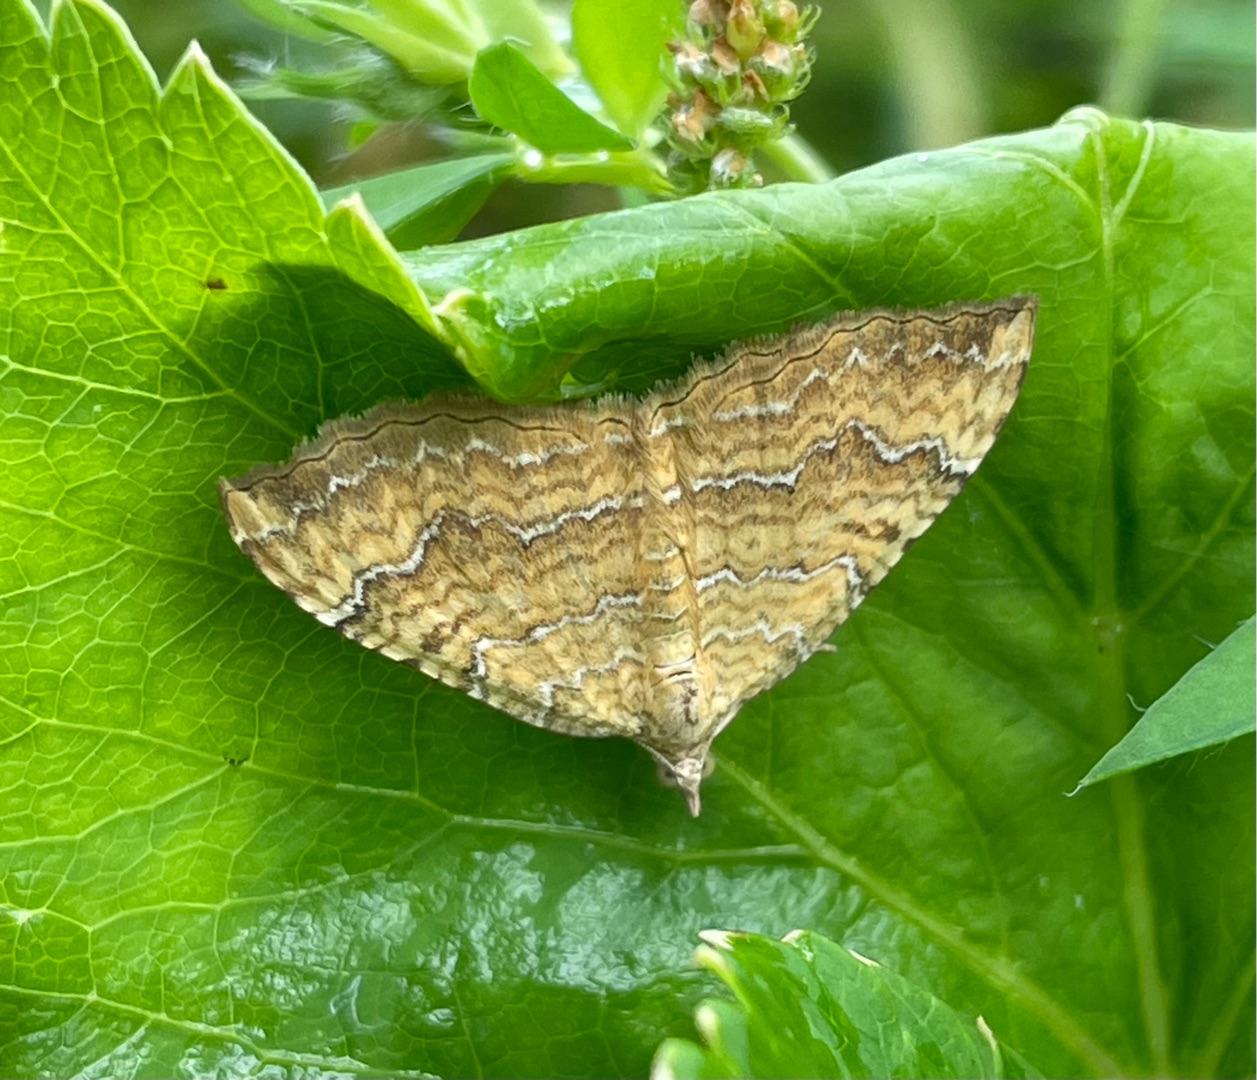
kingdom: Animalia
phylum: Arthropoda
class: Insecta
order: Lepidoptera
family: Geometridae
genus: Camptogramma
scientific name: Camptogramma bilineata
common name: Okkergul bladmåler
